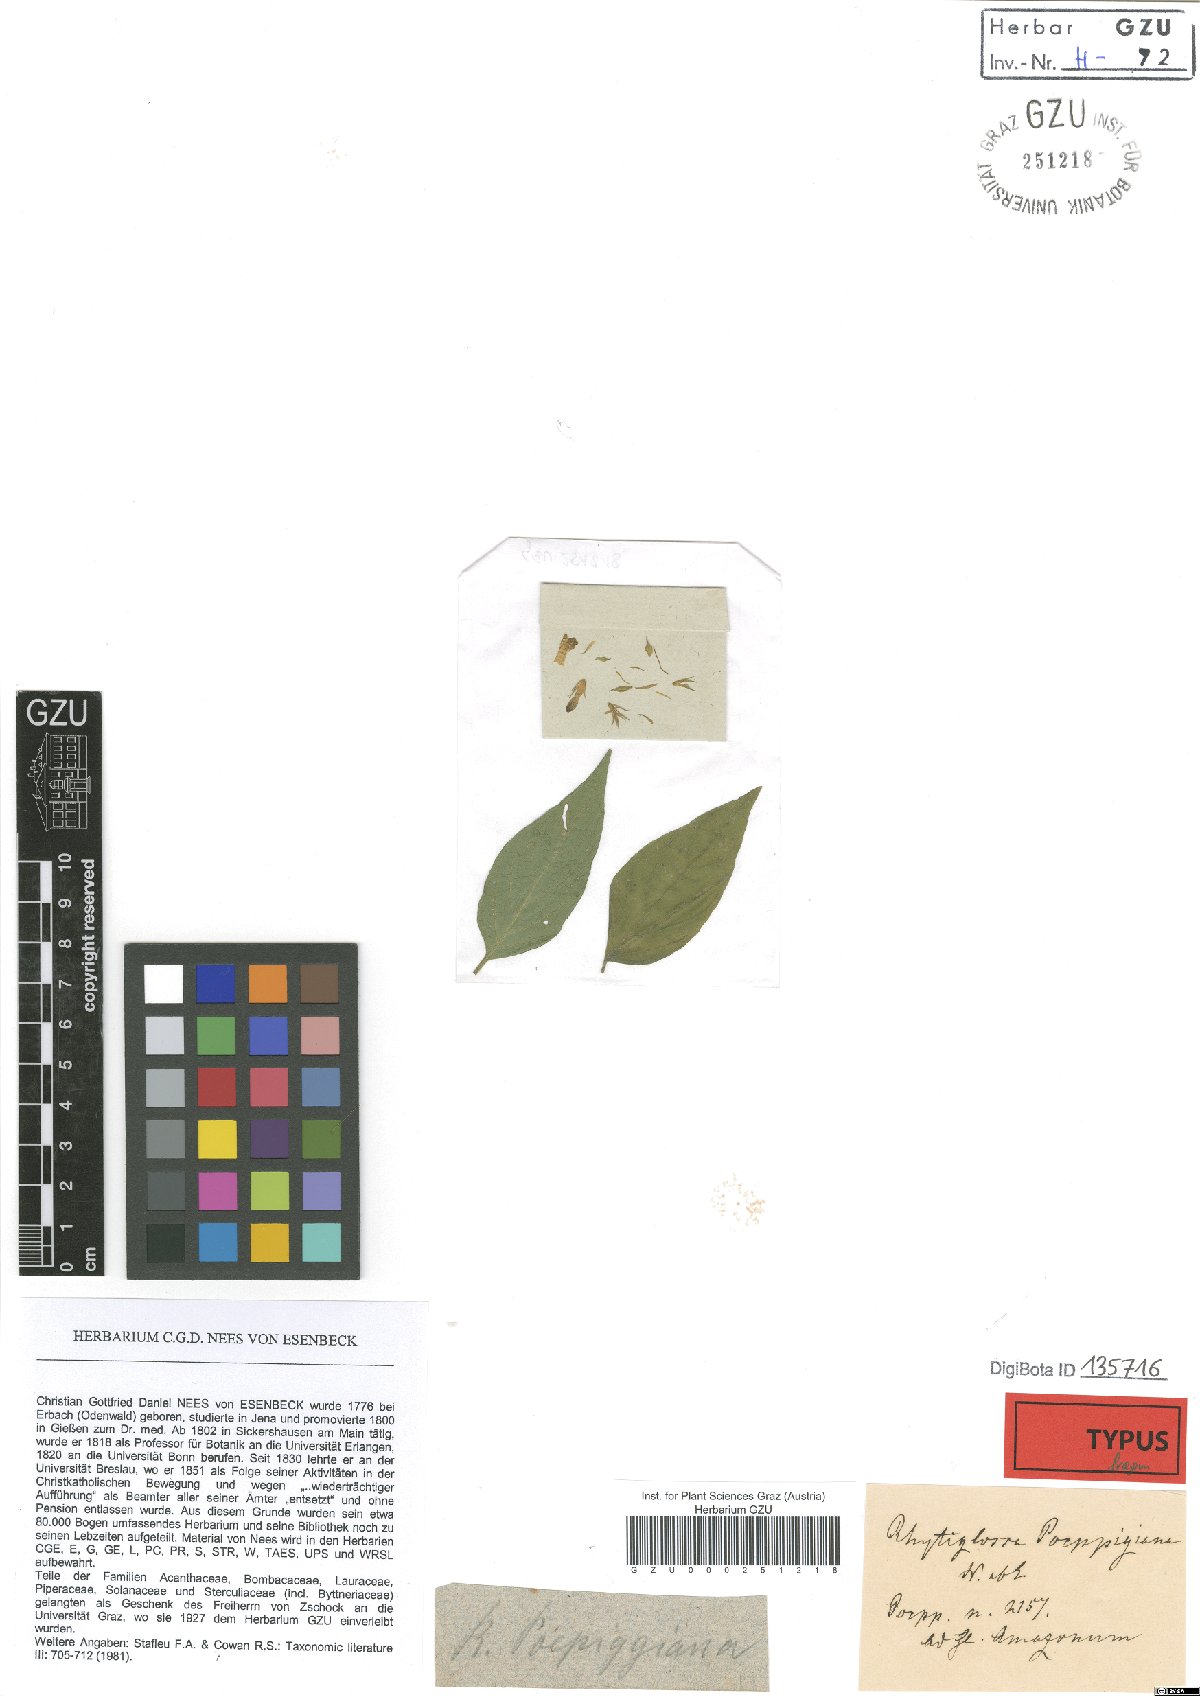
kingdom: Plantae
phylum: Tracheophyta
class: Magnoliopsida
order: Lamiales
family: Acanthaceae
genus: Justicia
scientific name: Justicia poeppigiana
